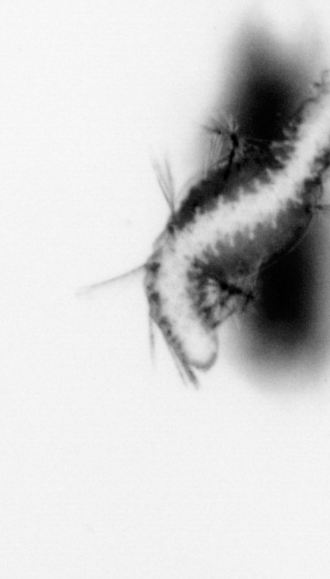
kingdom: Animalia
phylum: Annelida
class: Polychaeta
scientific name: Polychaeta
